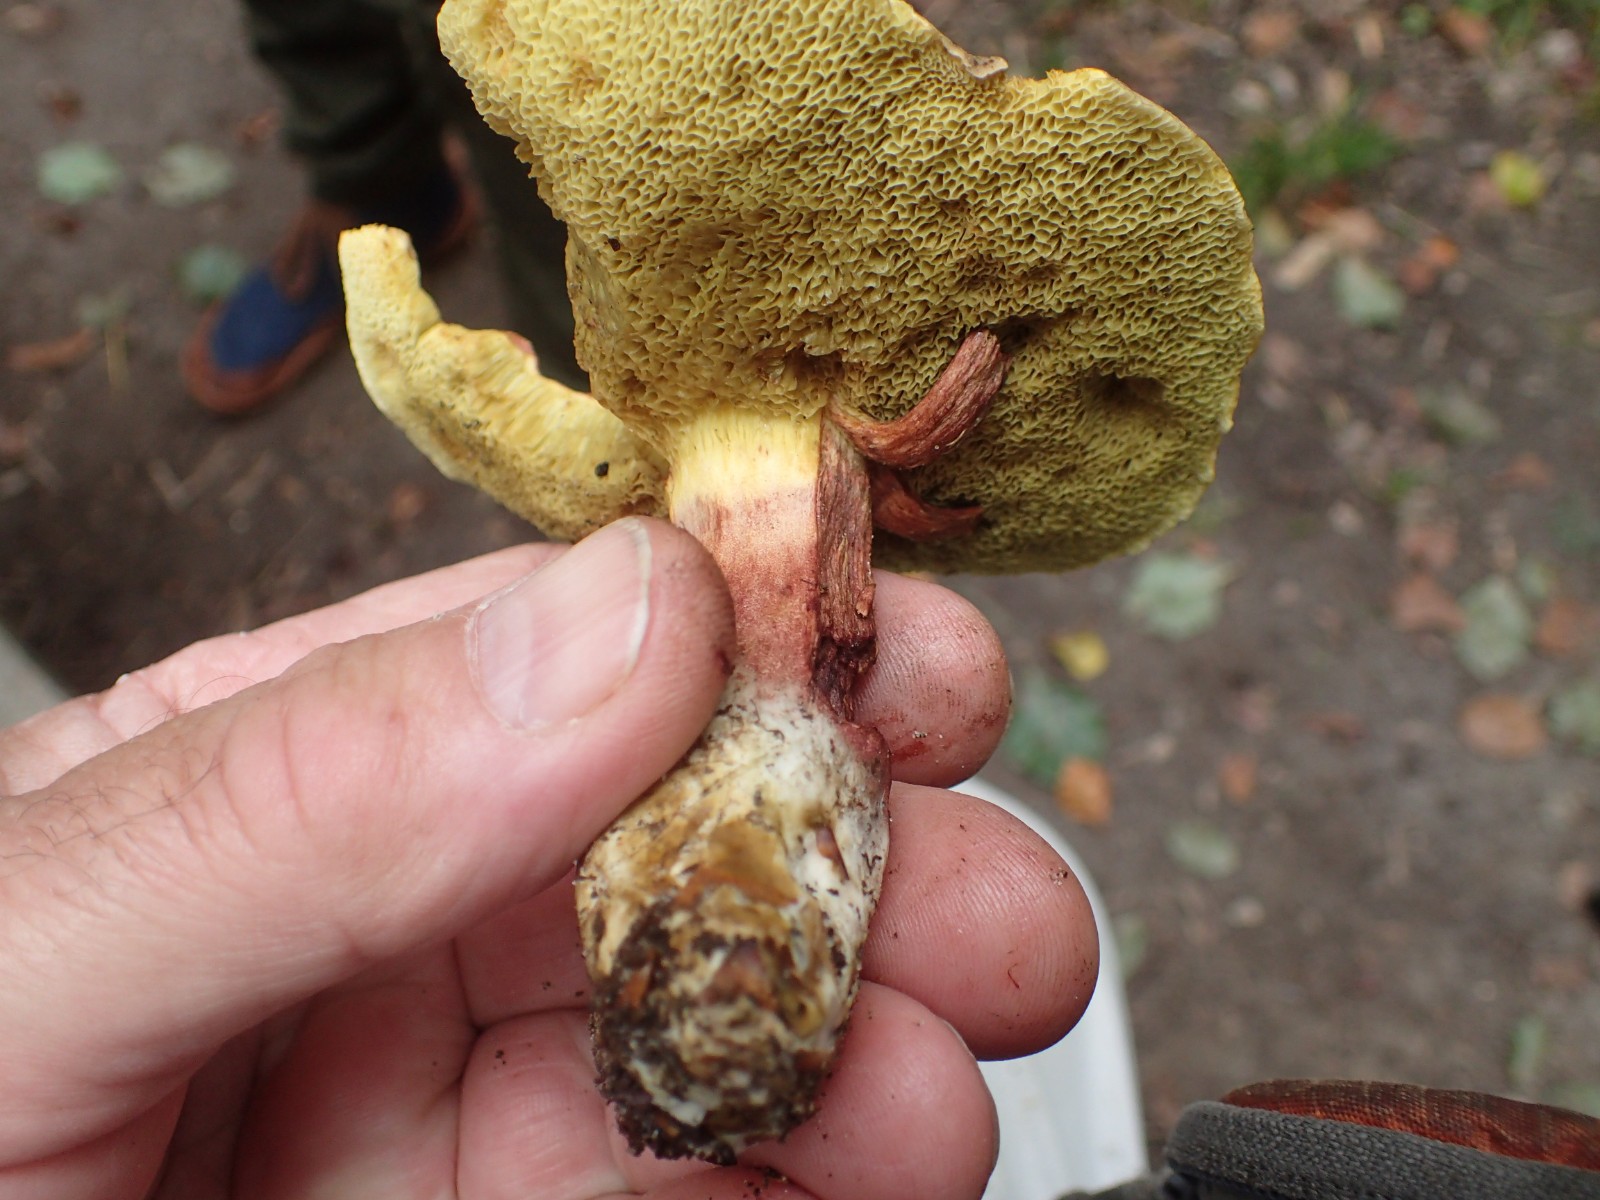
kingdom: Fungi
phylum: Basidiomycota
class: Agaricomycetes
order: Boletales
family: Boletaceae
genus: Xerocomellus
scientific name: Xerocomellus chrysenteron
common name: rødsprukken rørhat
